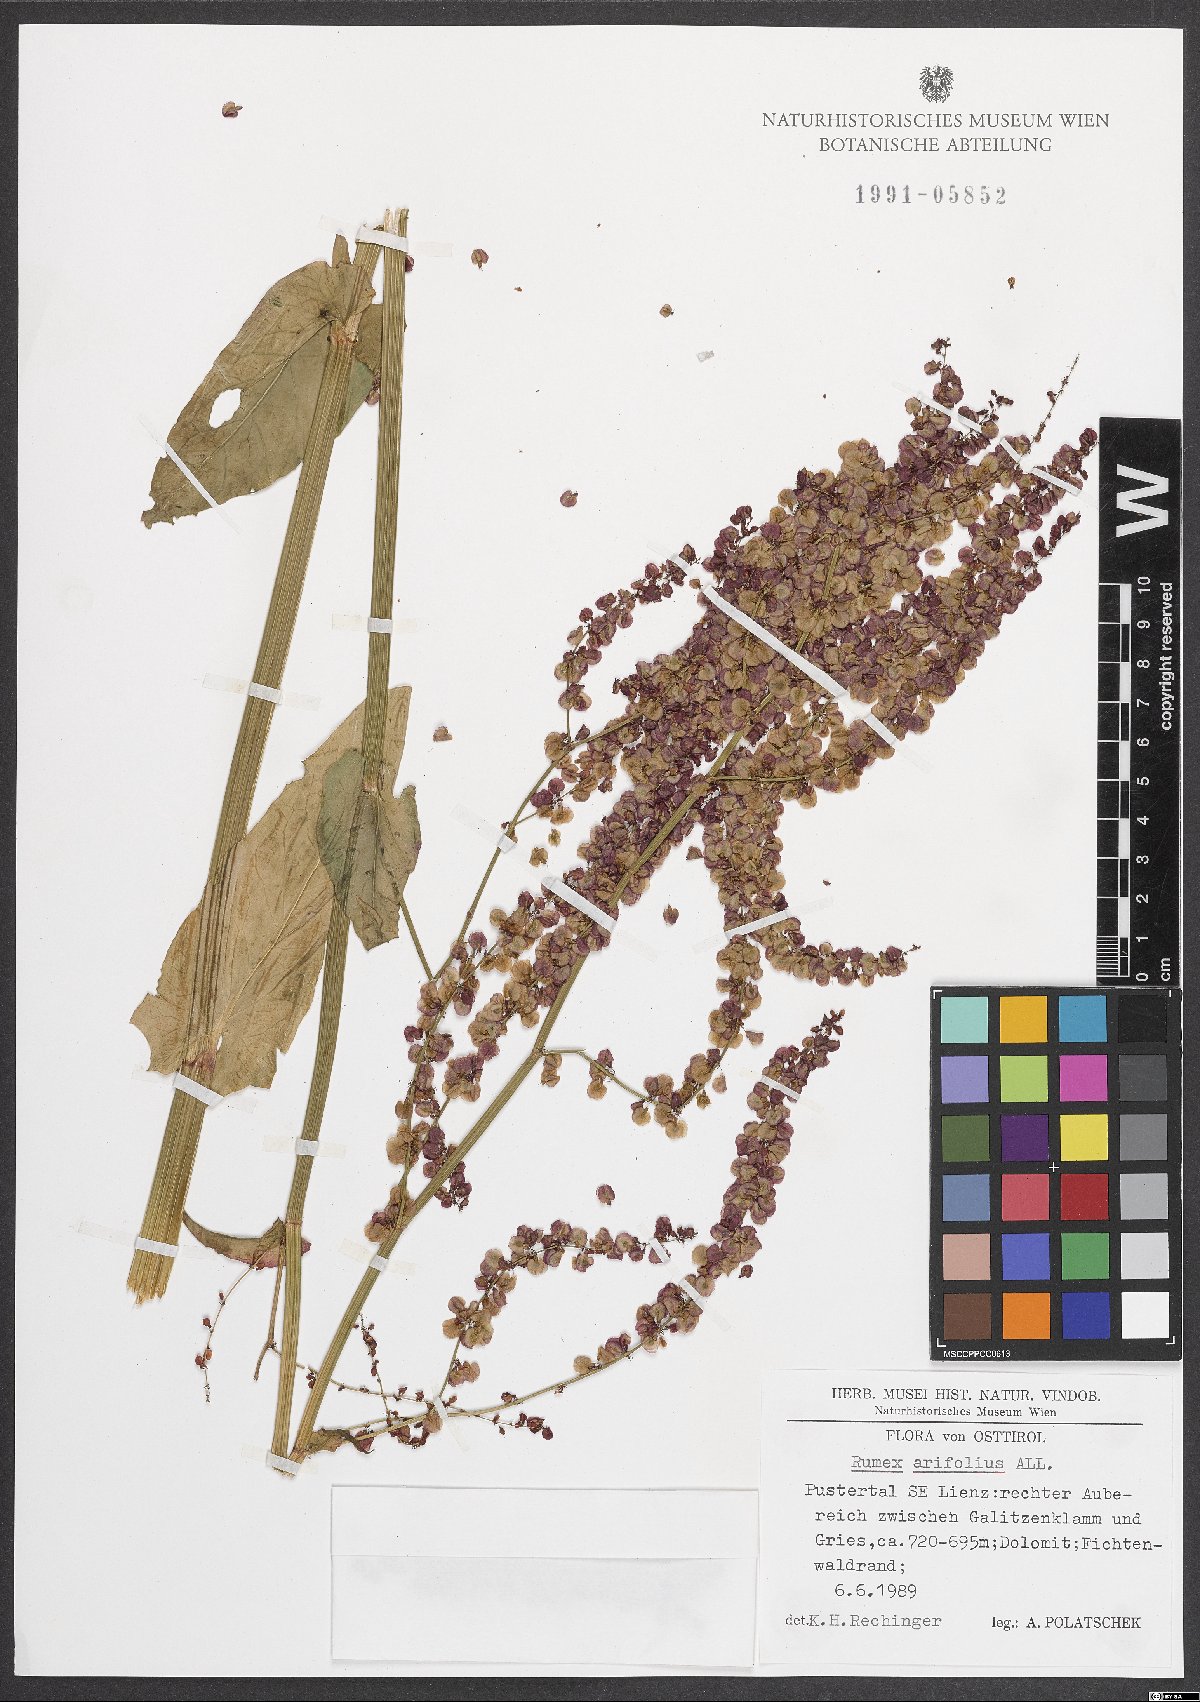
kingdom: Plantae
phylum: Tracheophyta
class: Magnoliopsida
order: Caryophyllales
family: Polygonaceae
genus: Rumex
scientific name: Rumex arifolius
